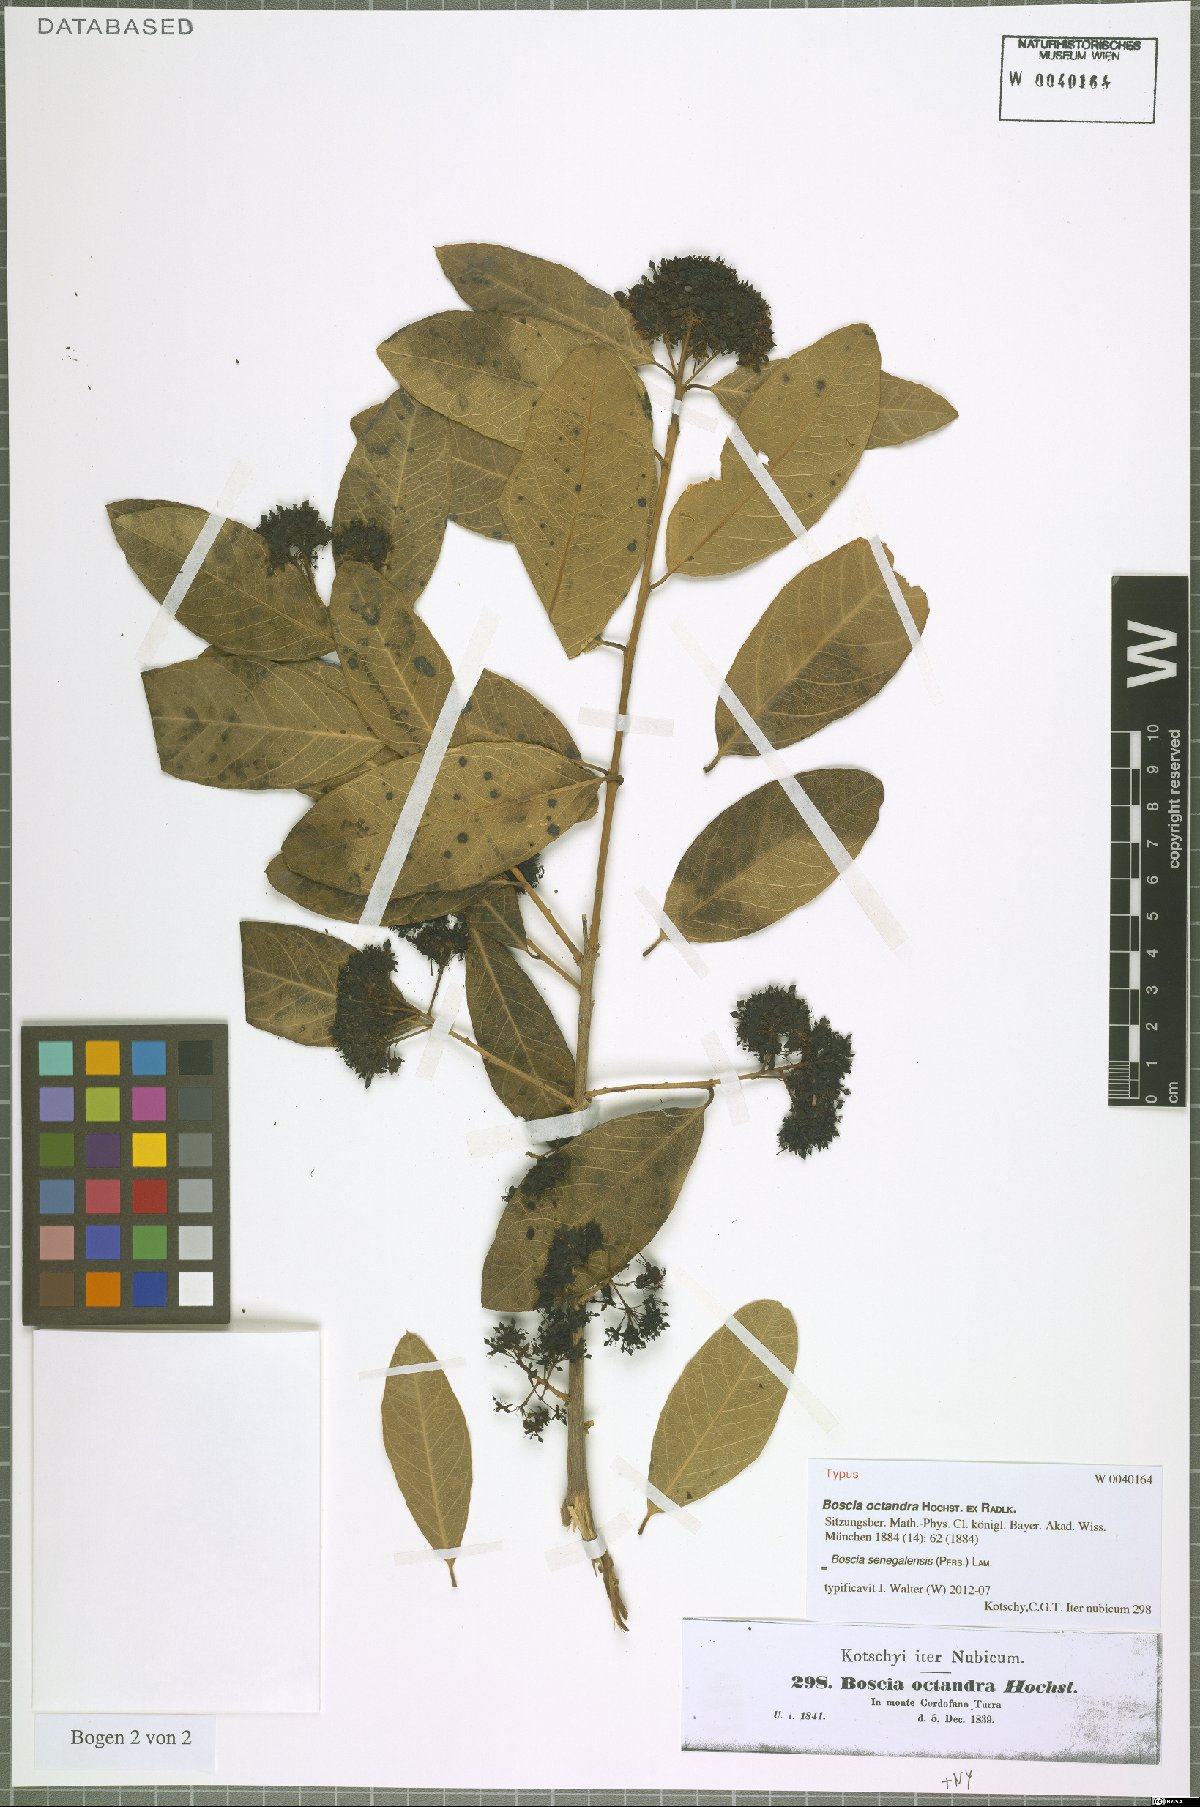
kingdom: Plantae
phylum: Tracheophyta
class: Magnoliopsida
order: Brassicales
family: Capparaceae
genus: Boscia
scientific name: Boscia senegalensis
